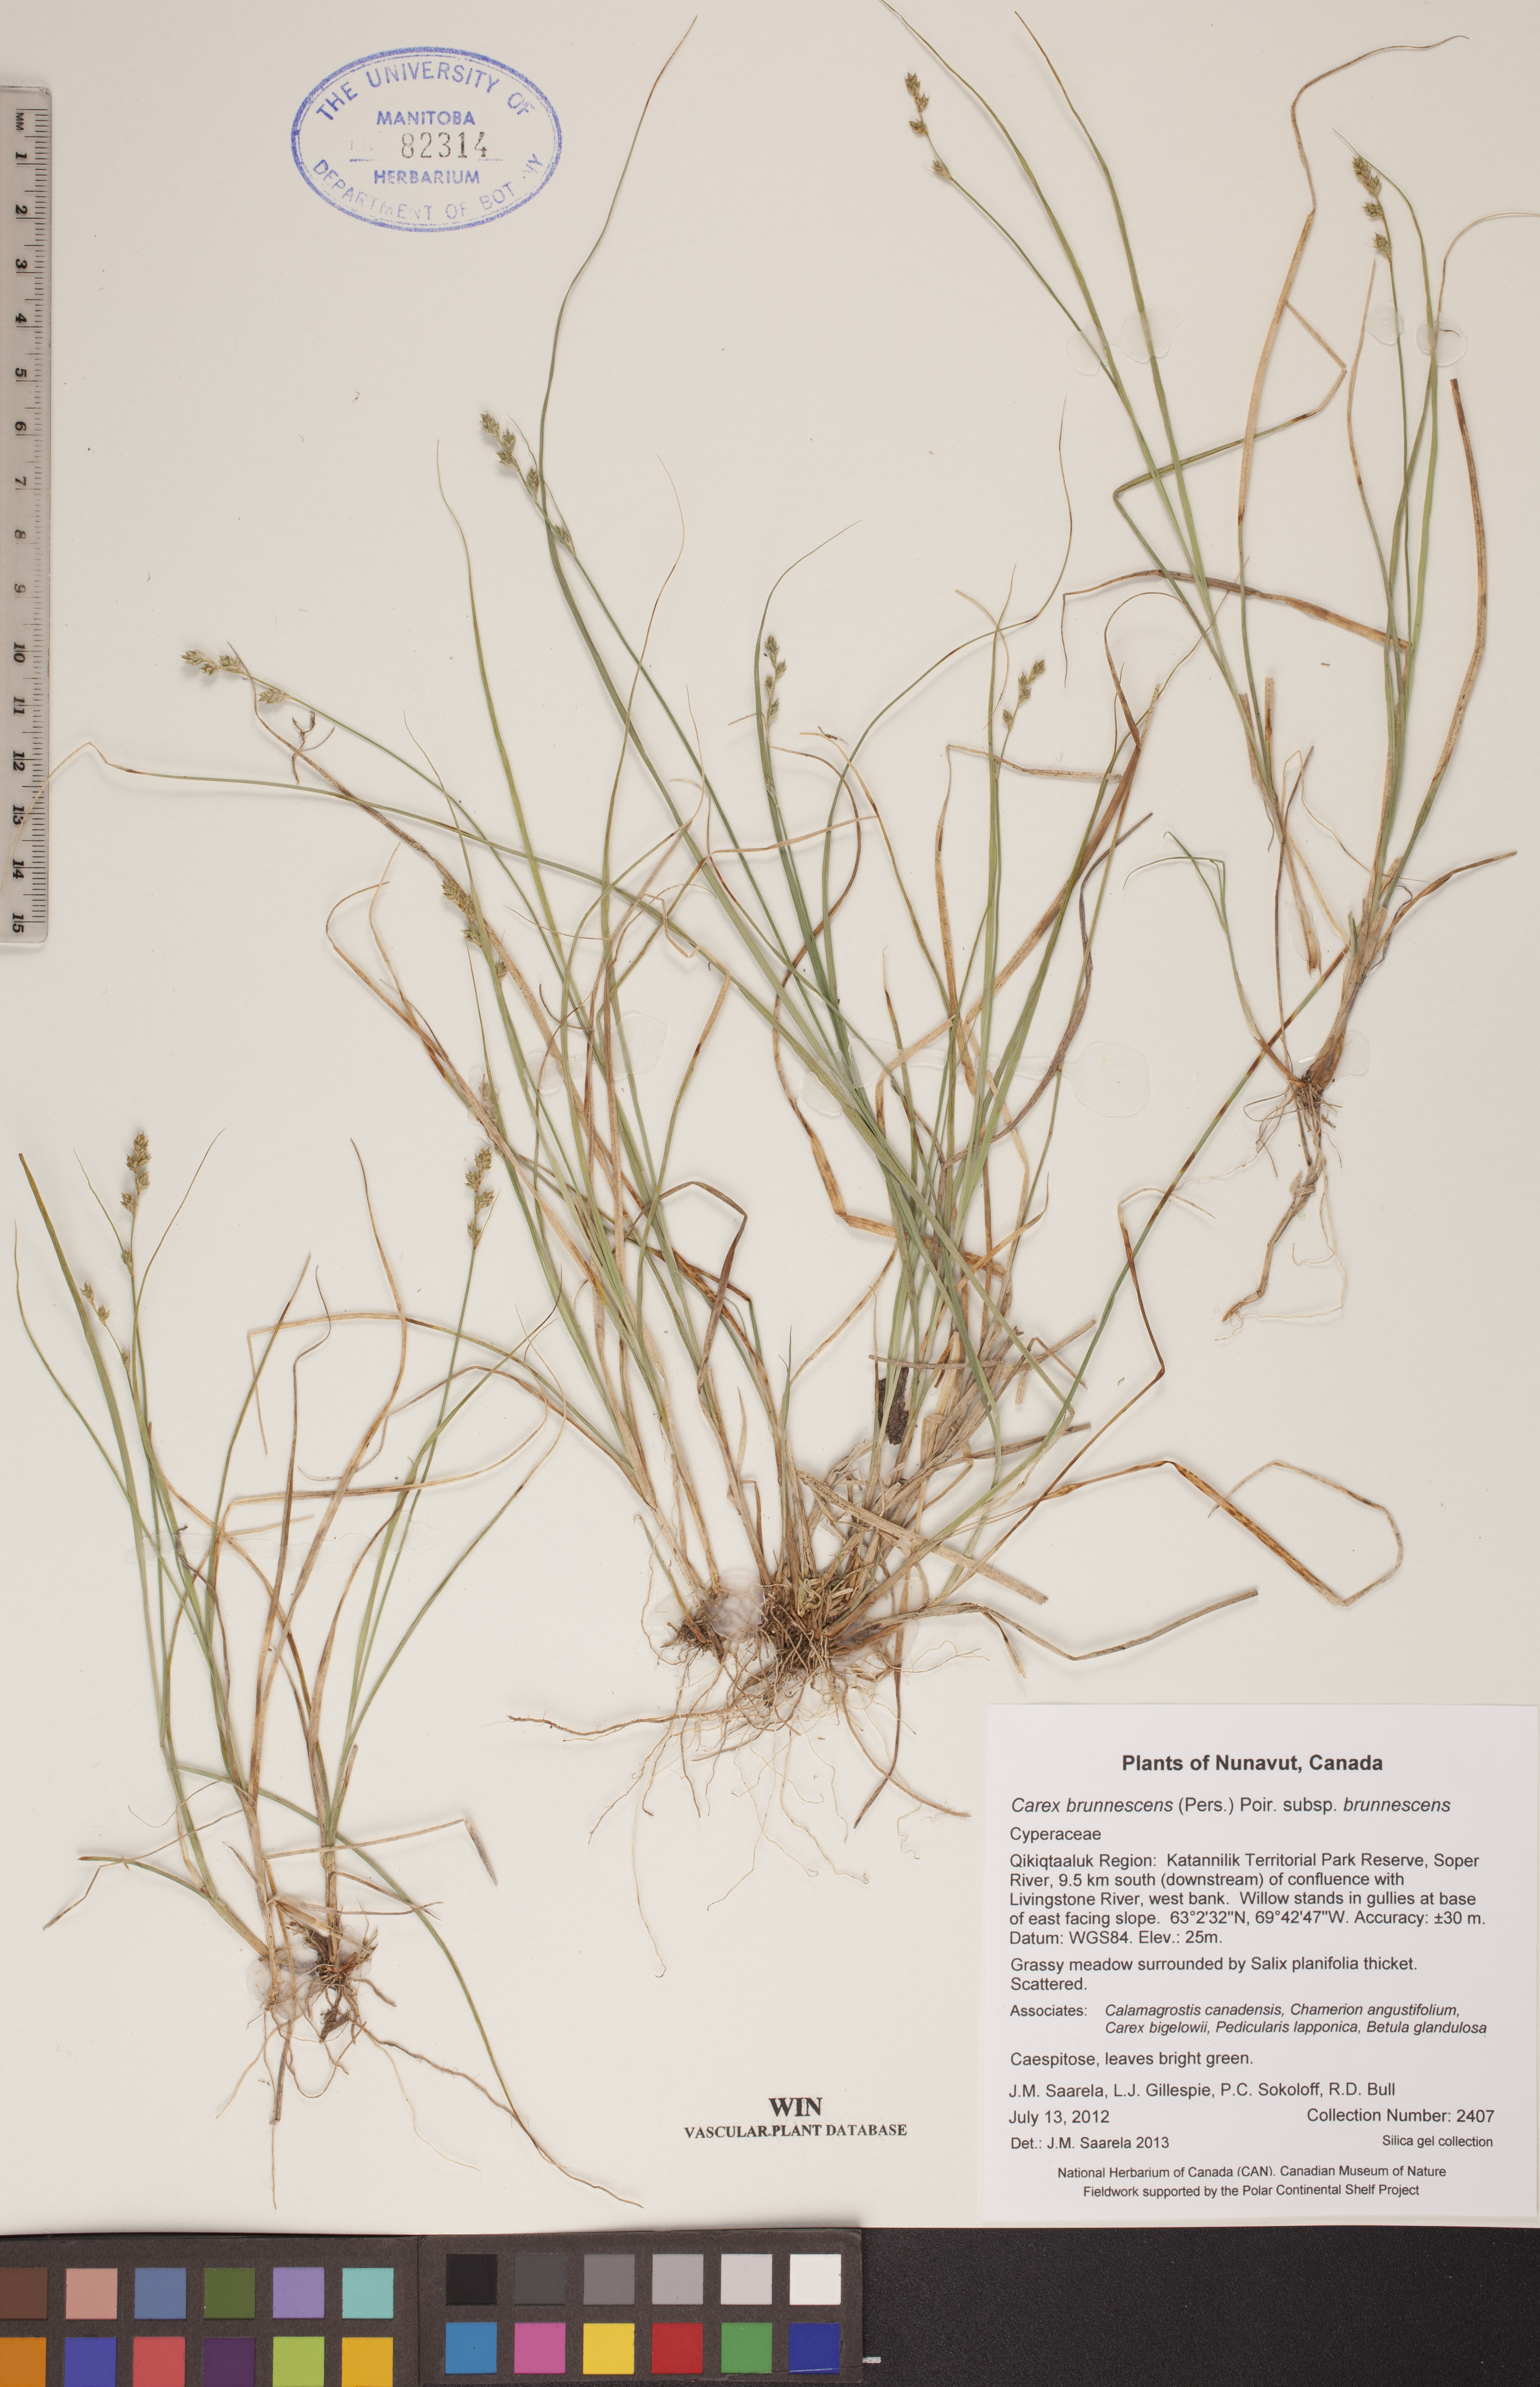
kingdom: Plantae
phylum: Tracheophyta
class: Liliopsida
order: Poales
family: Cyperaceae
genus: Carex
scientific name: Carex brunnescens
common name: Brown sedge
